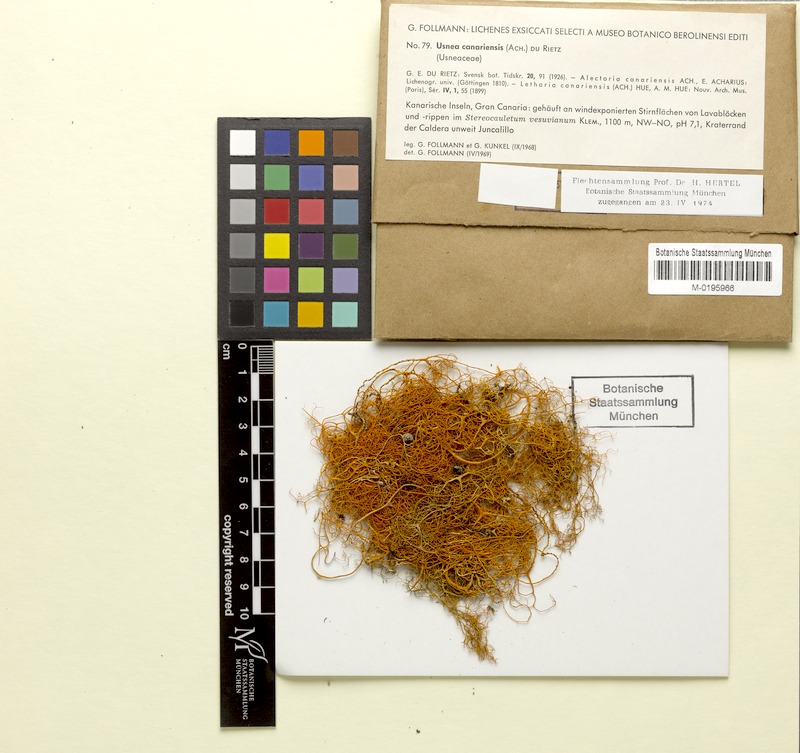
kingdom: Fungi
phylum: Ascomycota
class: Lecanoromycetes
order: Lecanorales
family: Parmeliaceae
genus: Lethariella
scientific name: Lethariella canariensis
